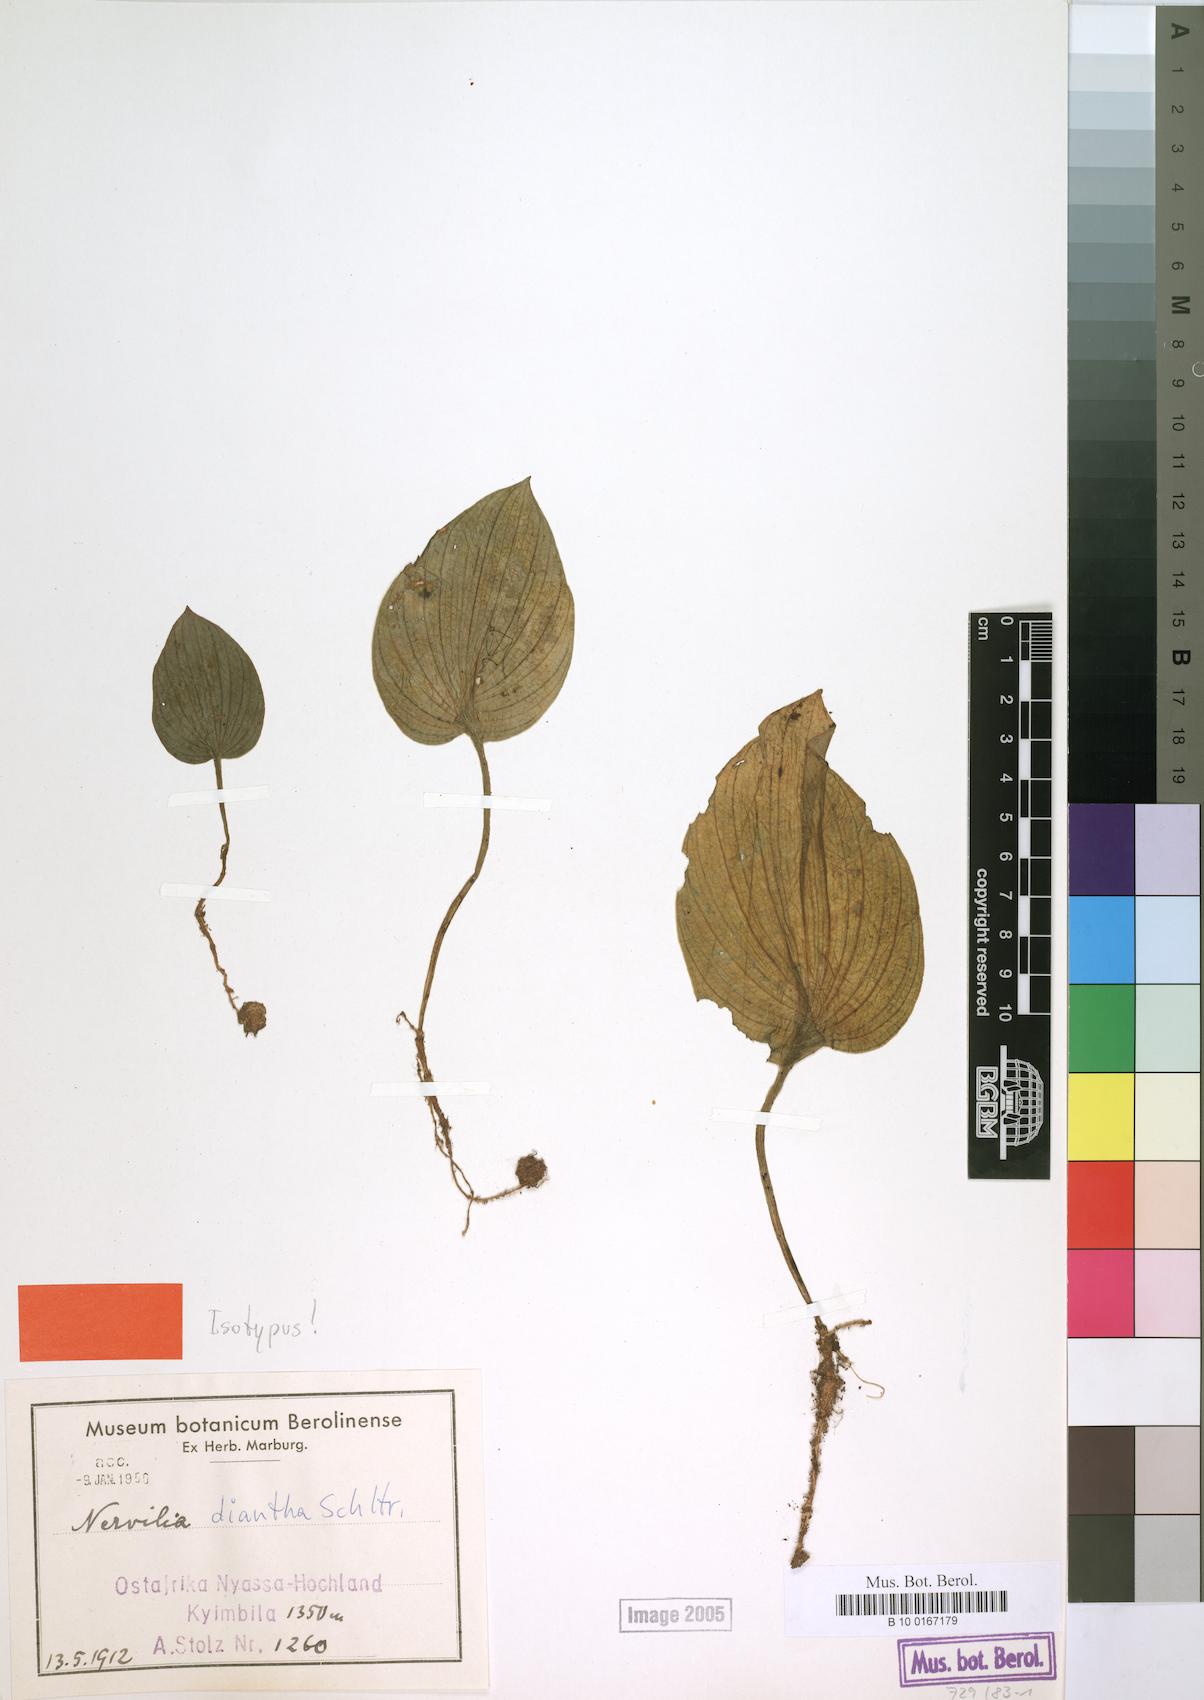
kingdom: Plantae
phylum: Tracheophyta
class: Liliopsida
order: Asparagales
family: Orchidaceae
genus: Nervilia
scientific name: Nervilia kotschyi
